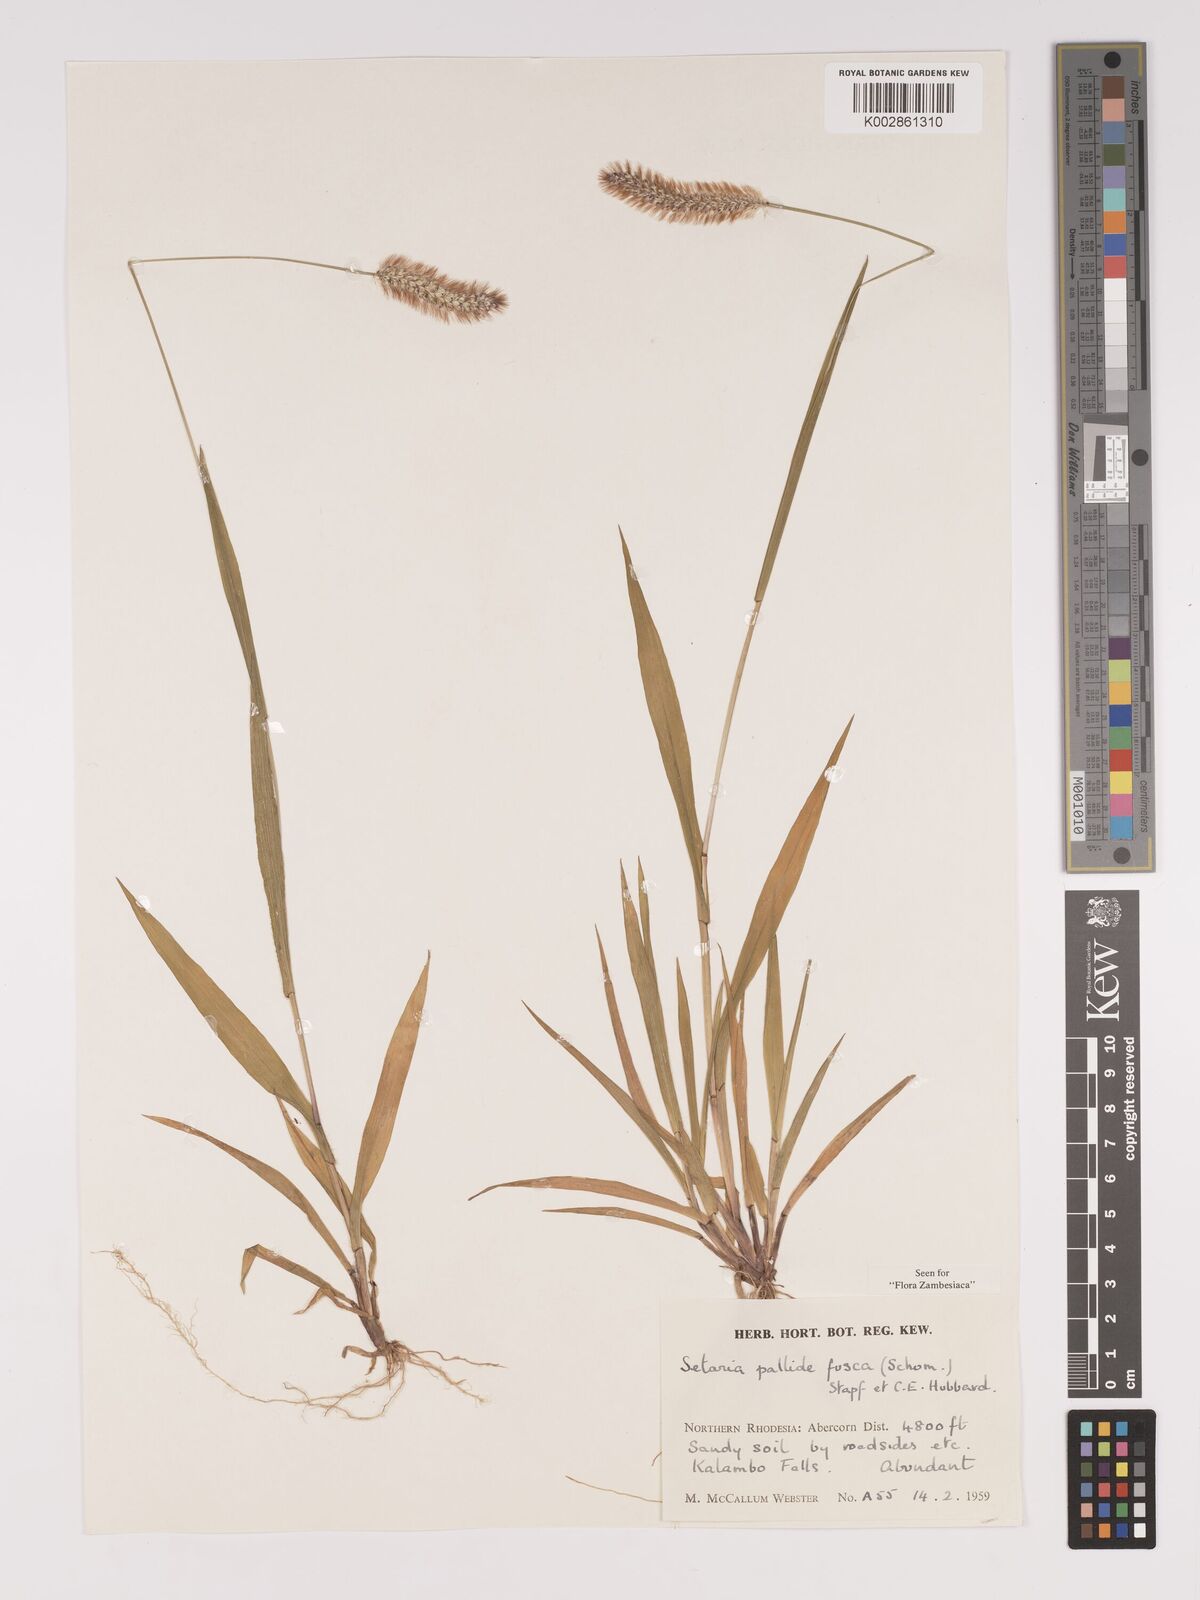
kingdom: Plantae
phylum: Tracheophyta
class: Liliopsida
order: Poales
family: Poaceae
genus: Setaria
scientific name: Setaria pumila
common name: Yellow bristle-grass
